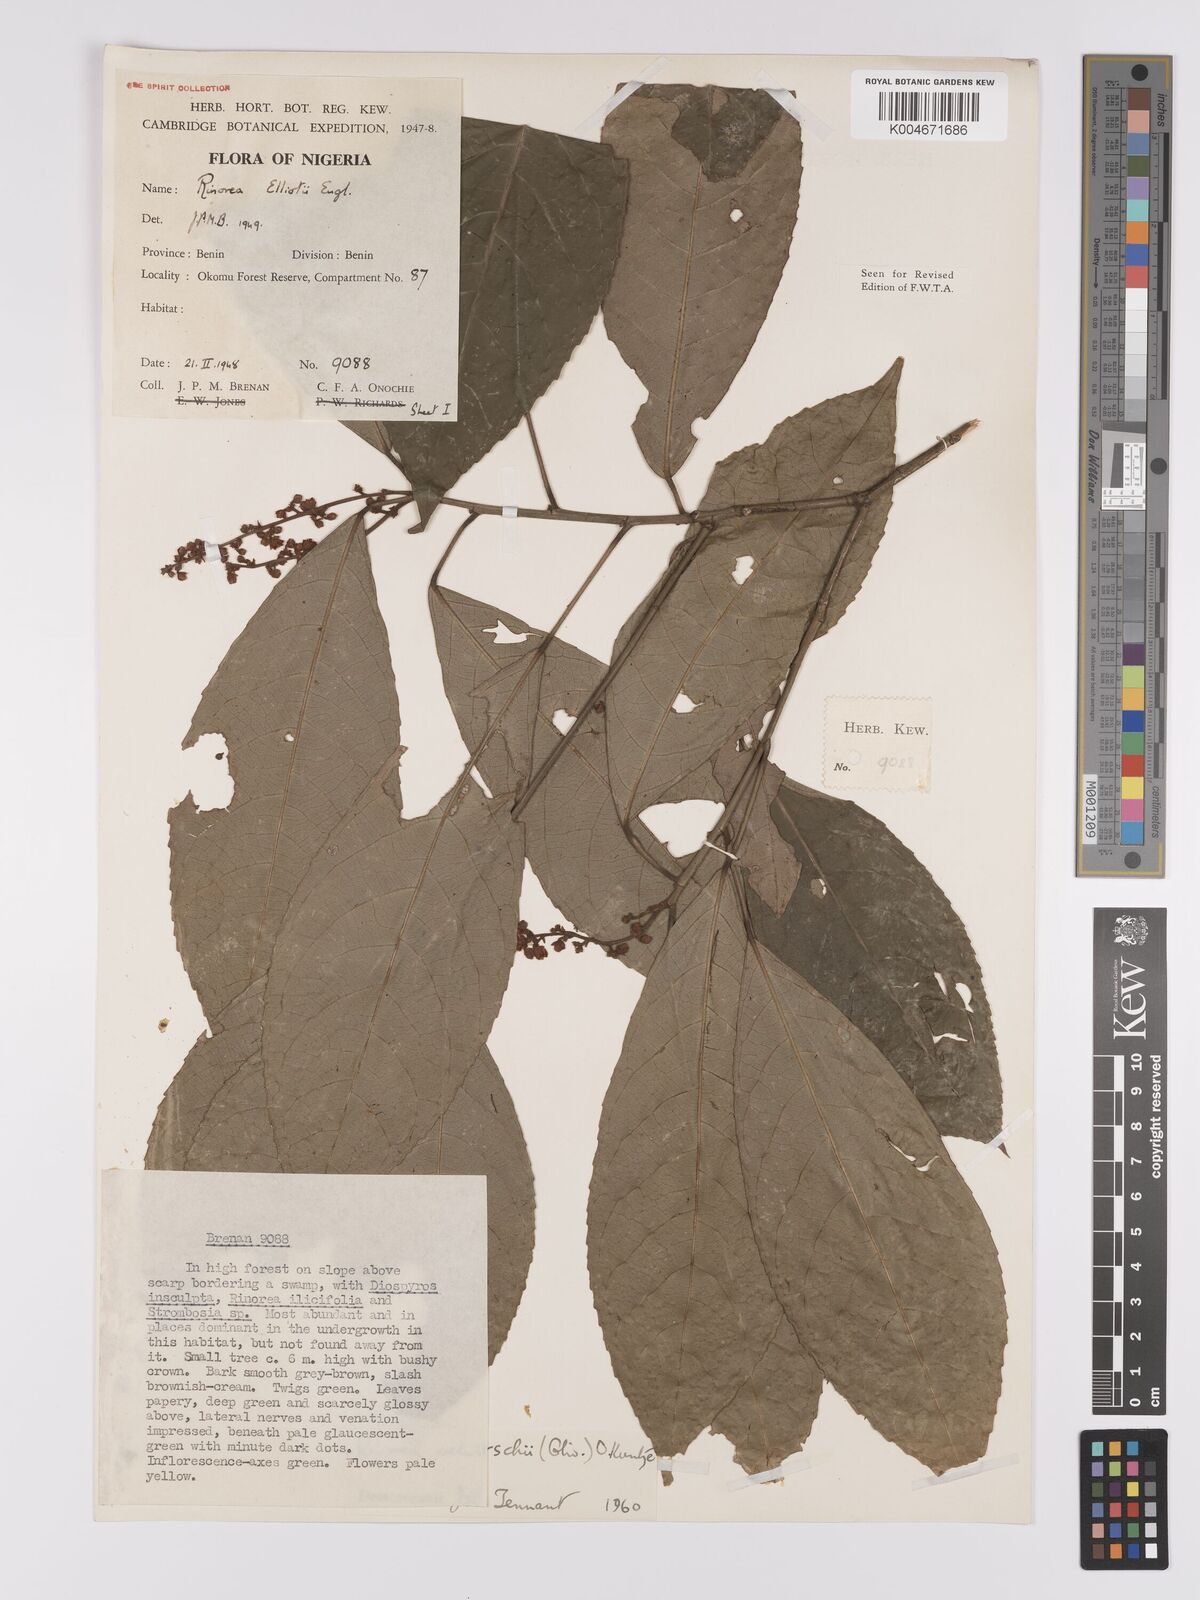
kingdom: Plantae
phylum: Tracheophyta
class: Magnoliopsida
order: Malpighiales
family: Violaceae
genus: Rinorea
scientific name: Rinorea welwitschii
